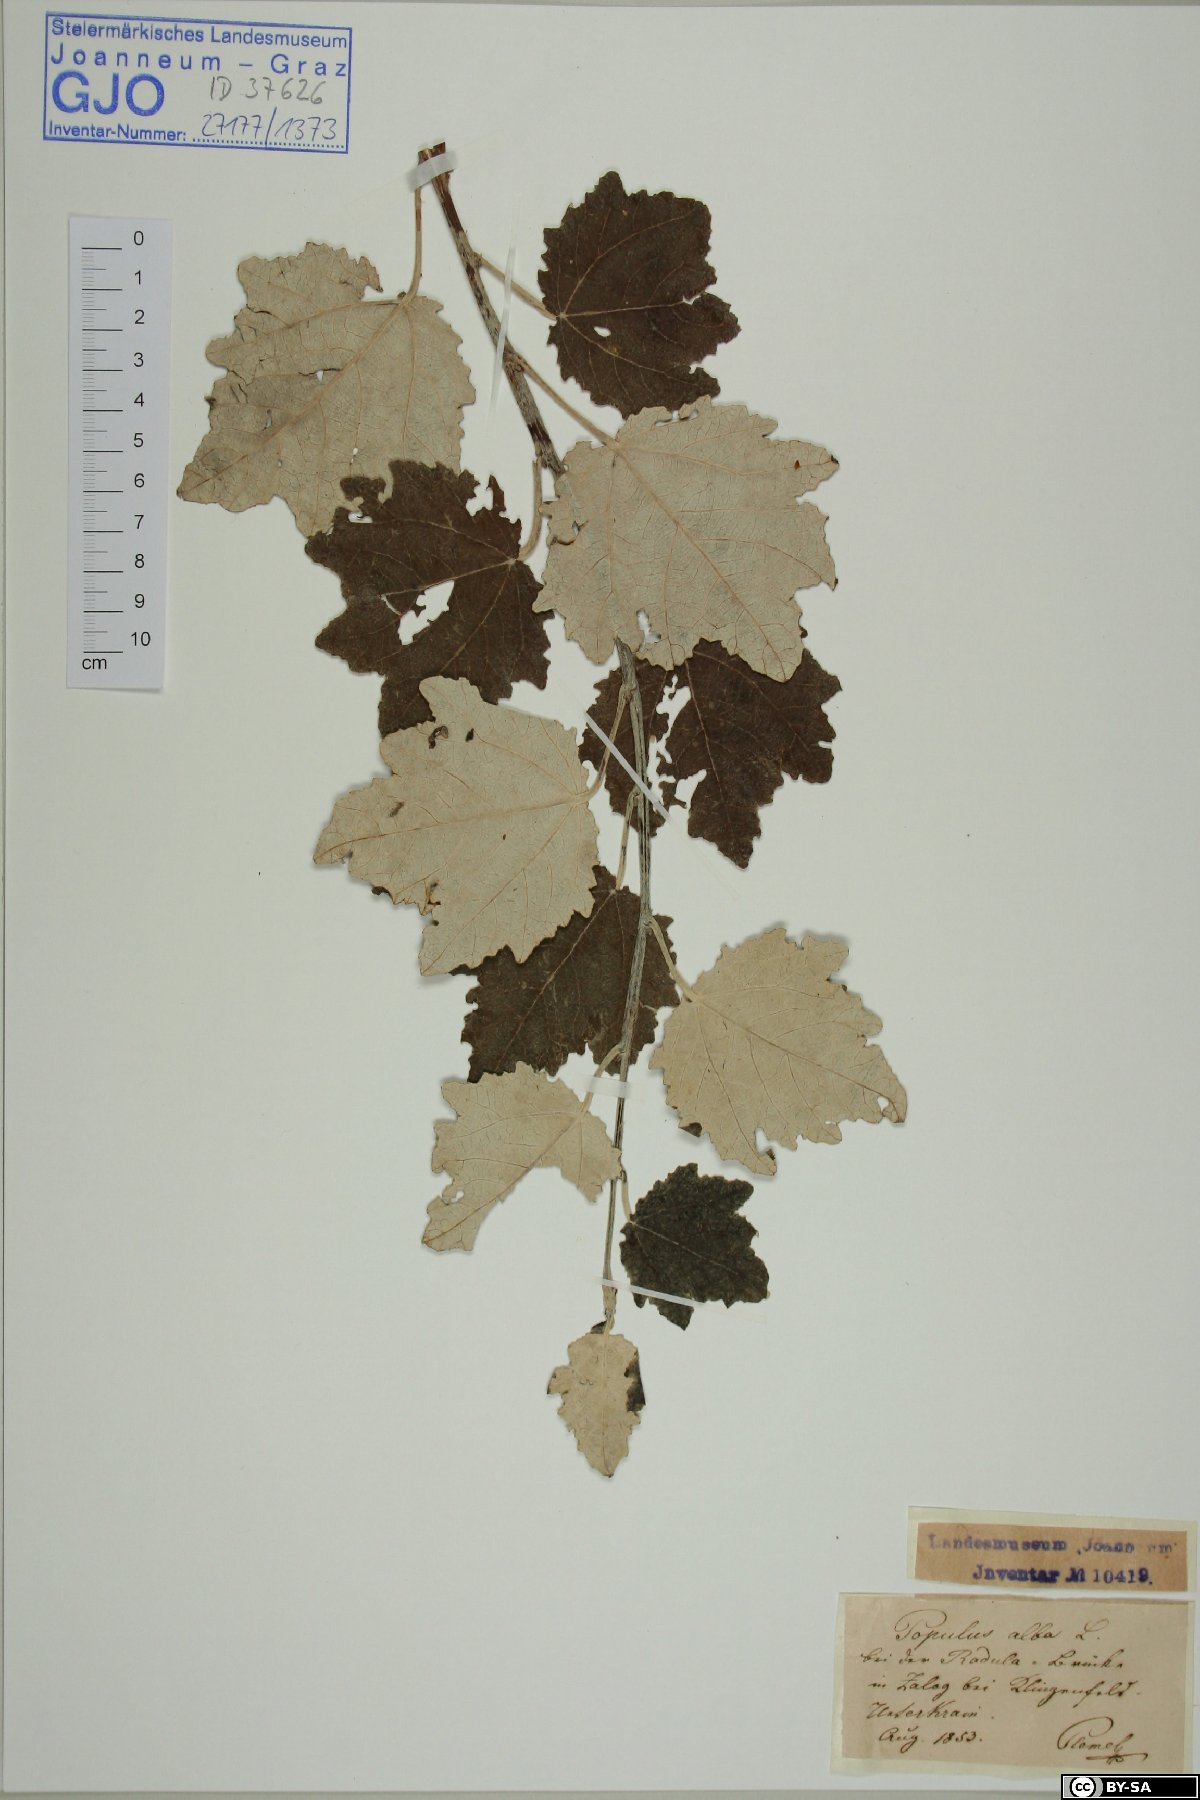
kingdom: Plantae
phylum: Tracheophyta
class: Magnoliopsida
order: Malpighiales
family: Salicaceae
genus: Populus
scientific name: Populus alba
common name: White poplar
